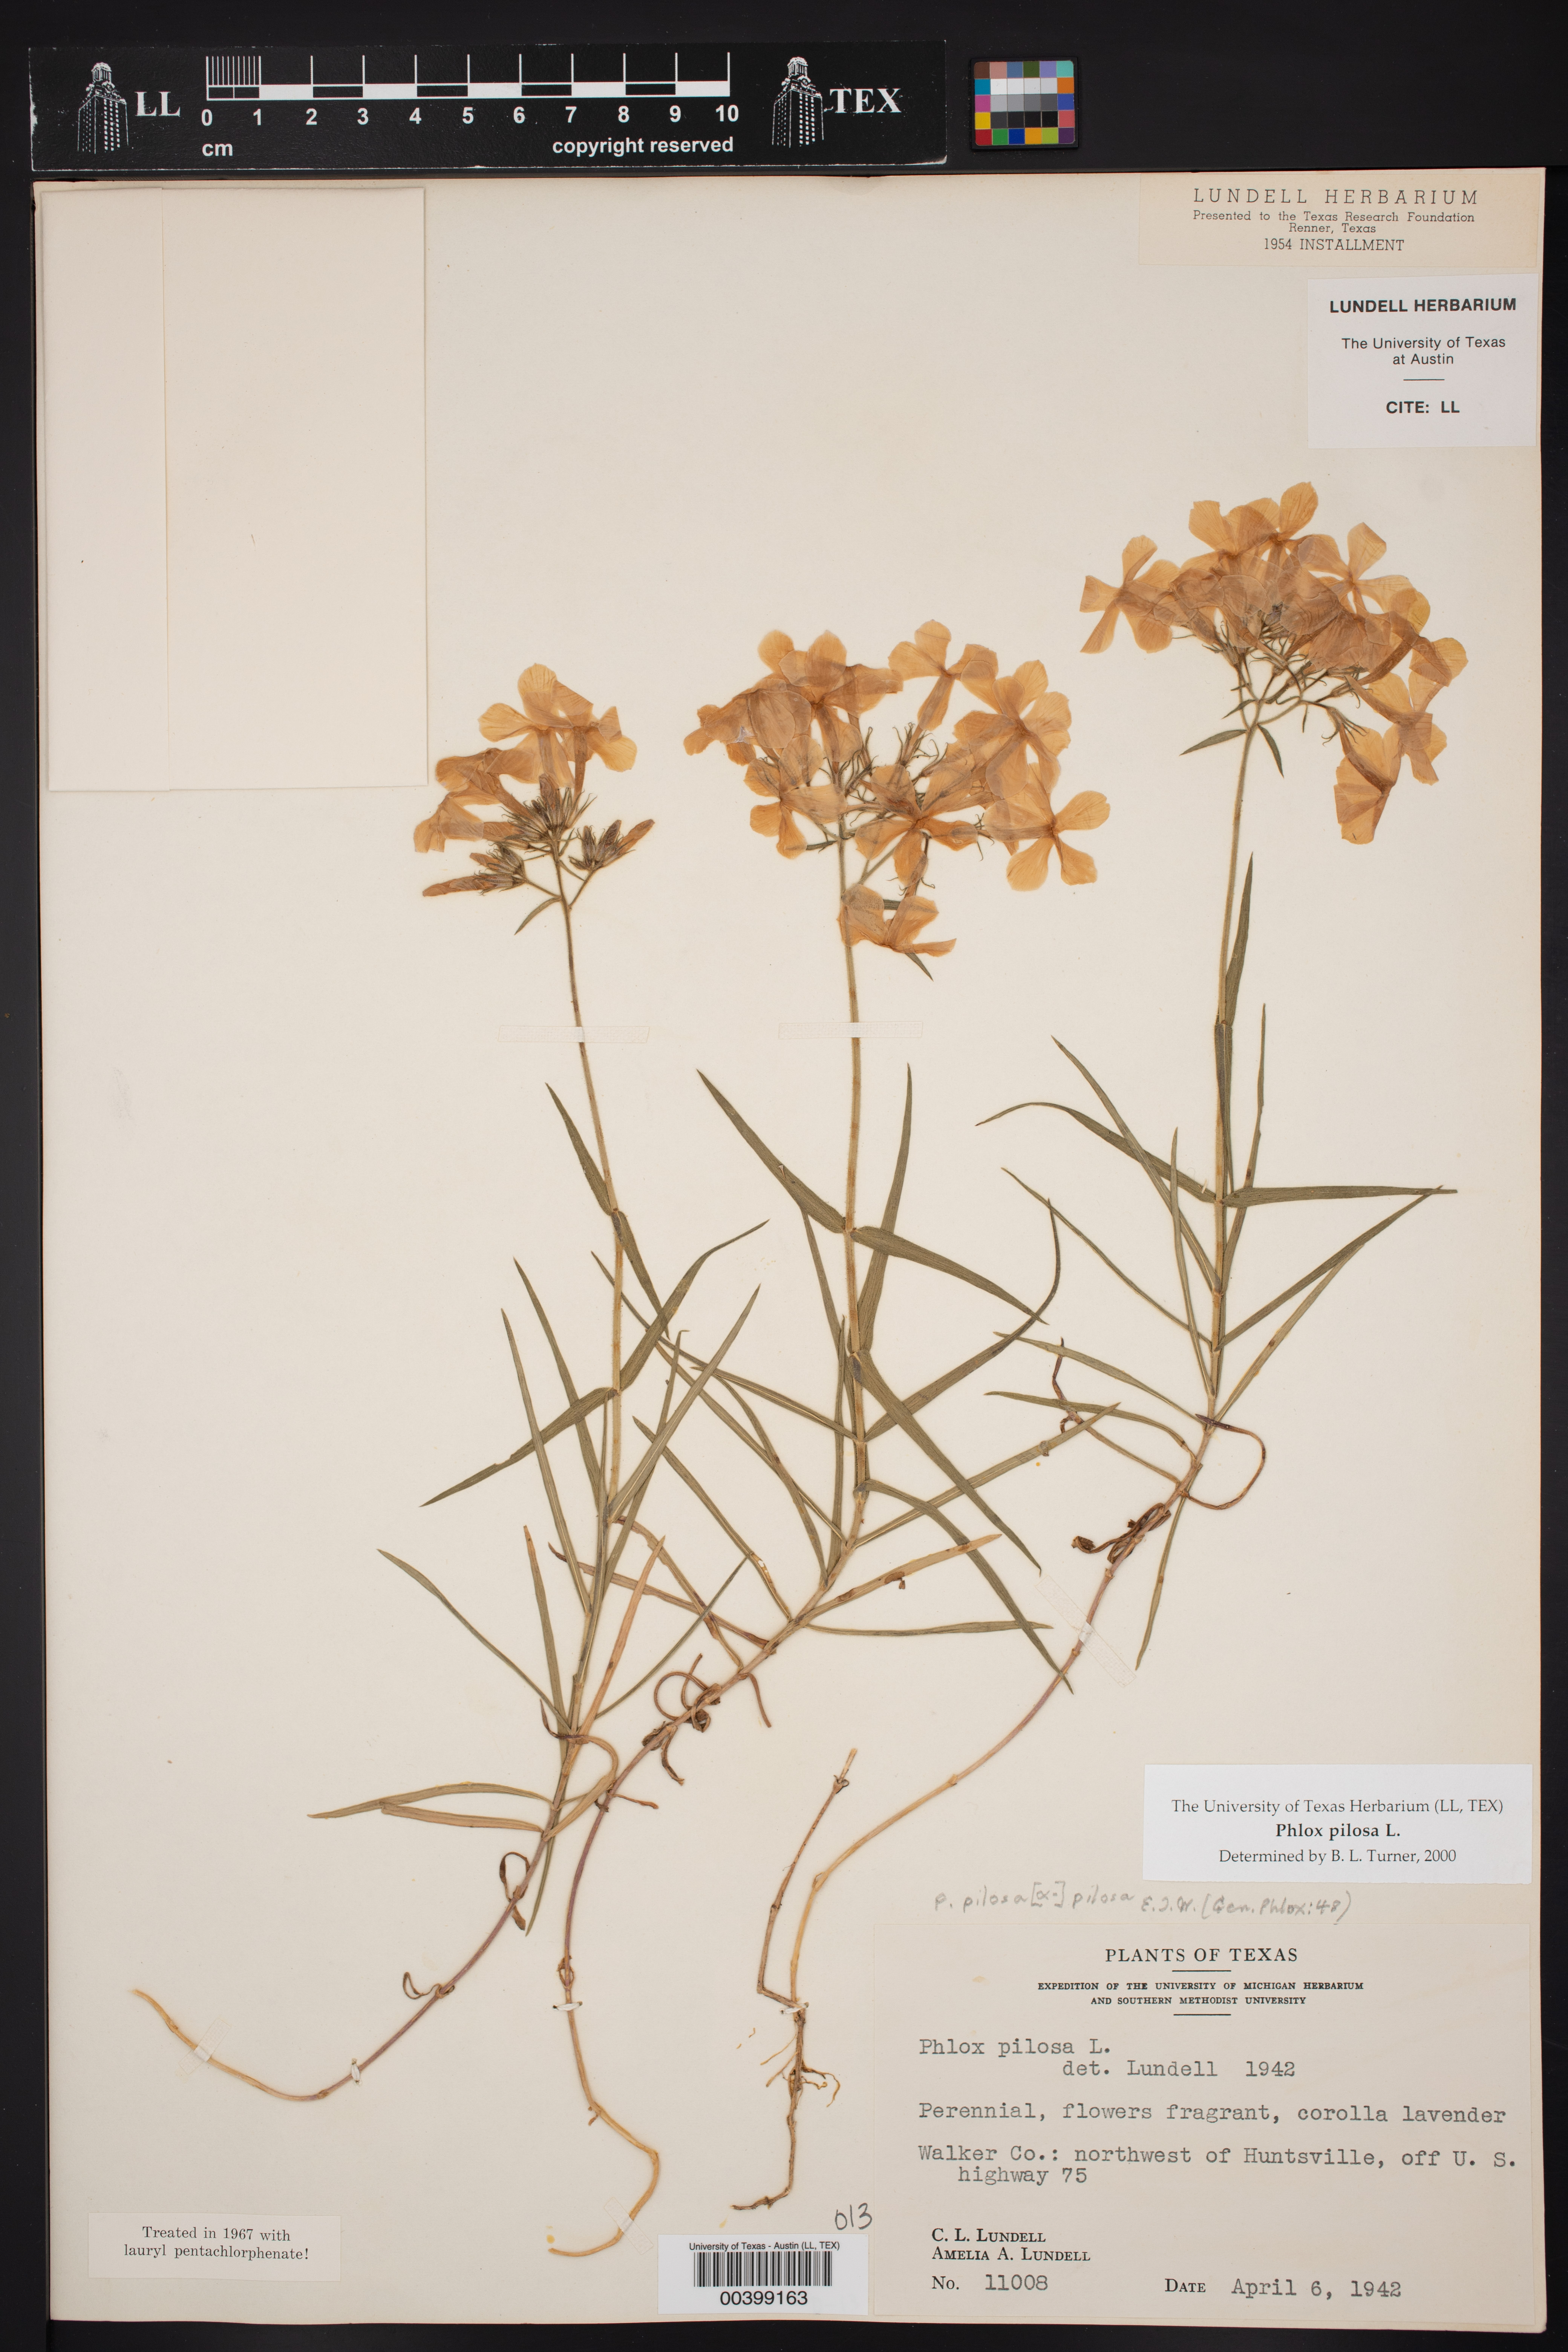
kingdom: Plantae
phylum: Tracheophyta
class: Magnoliopsida
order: Ericales
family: Polemoniaceae
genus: Phlox
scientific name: Phlox pilosa
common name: Prairie phlox
